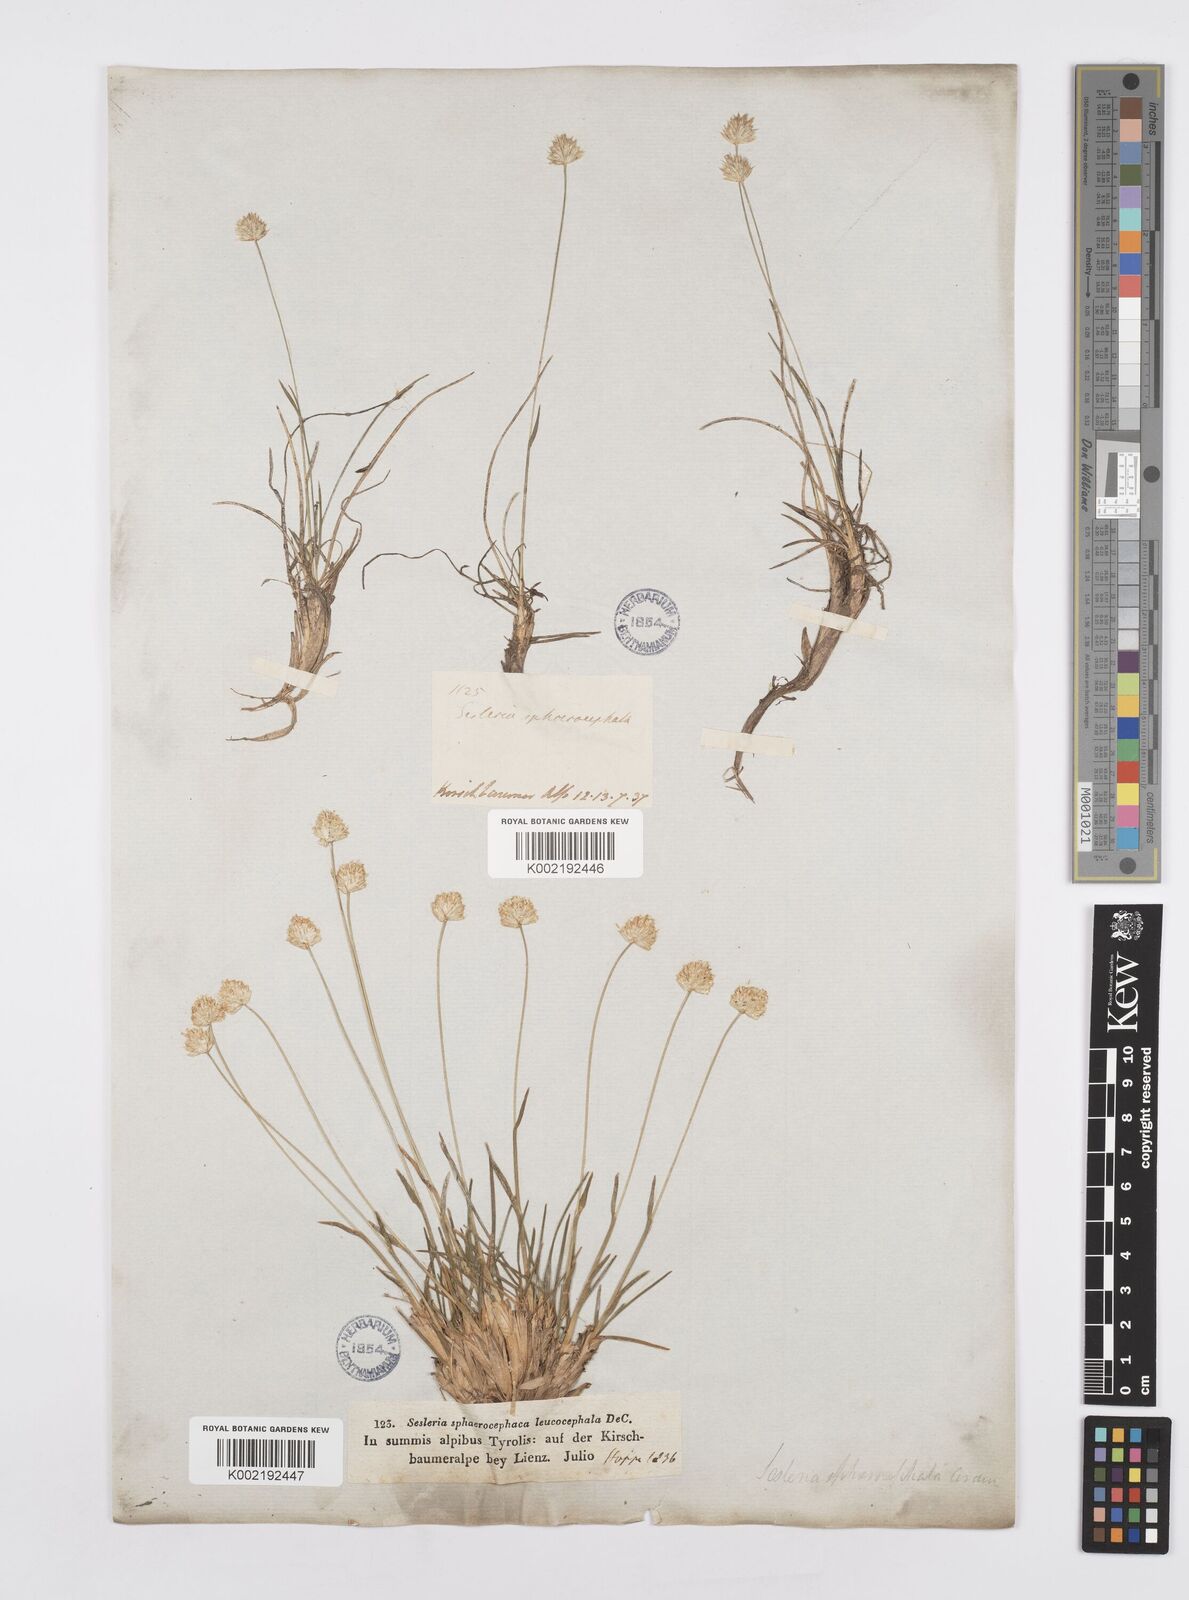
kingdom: Plantae
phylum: Tracheophyta
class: Liliopsida
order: Poales
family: Poaceae
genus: Sesleriella
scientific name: Sesleriella sphaerocephala
